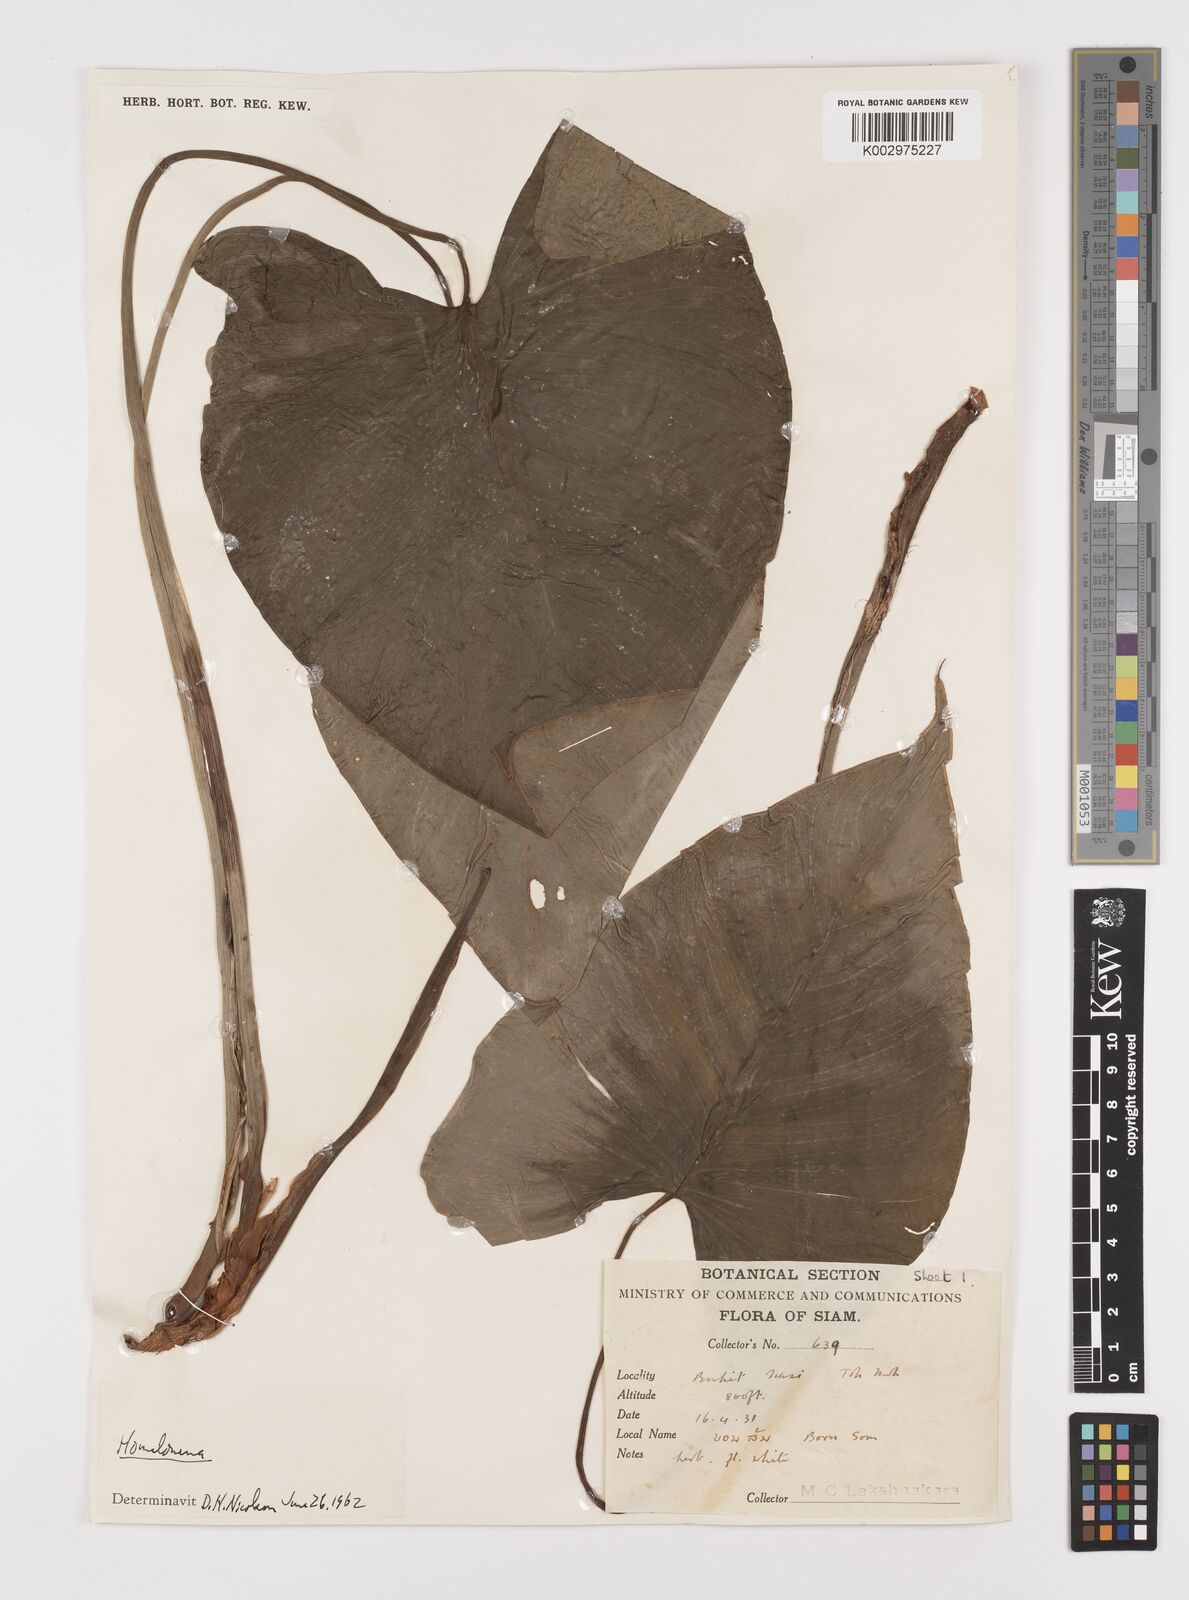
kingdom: Plantae
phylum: Tracheophyta
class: Liliopsida
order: Alismatales
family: Araceae
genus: Homalomena
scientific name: Homalomena rostrata
